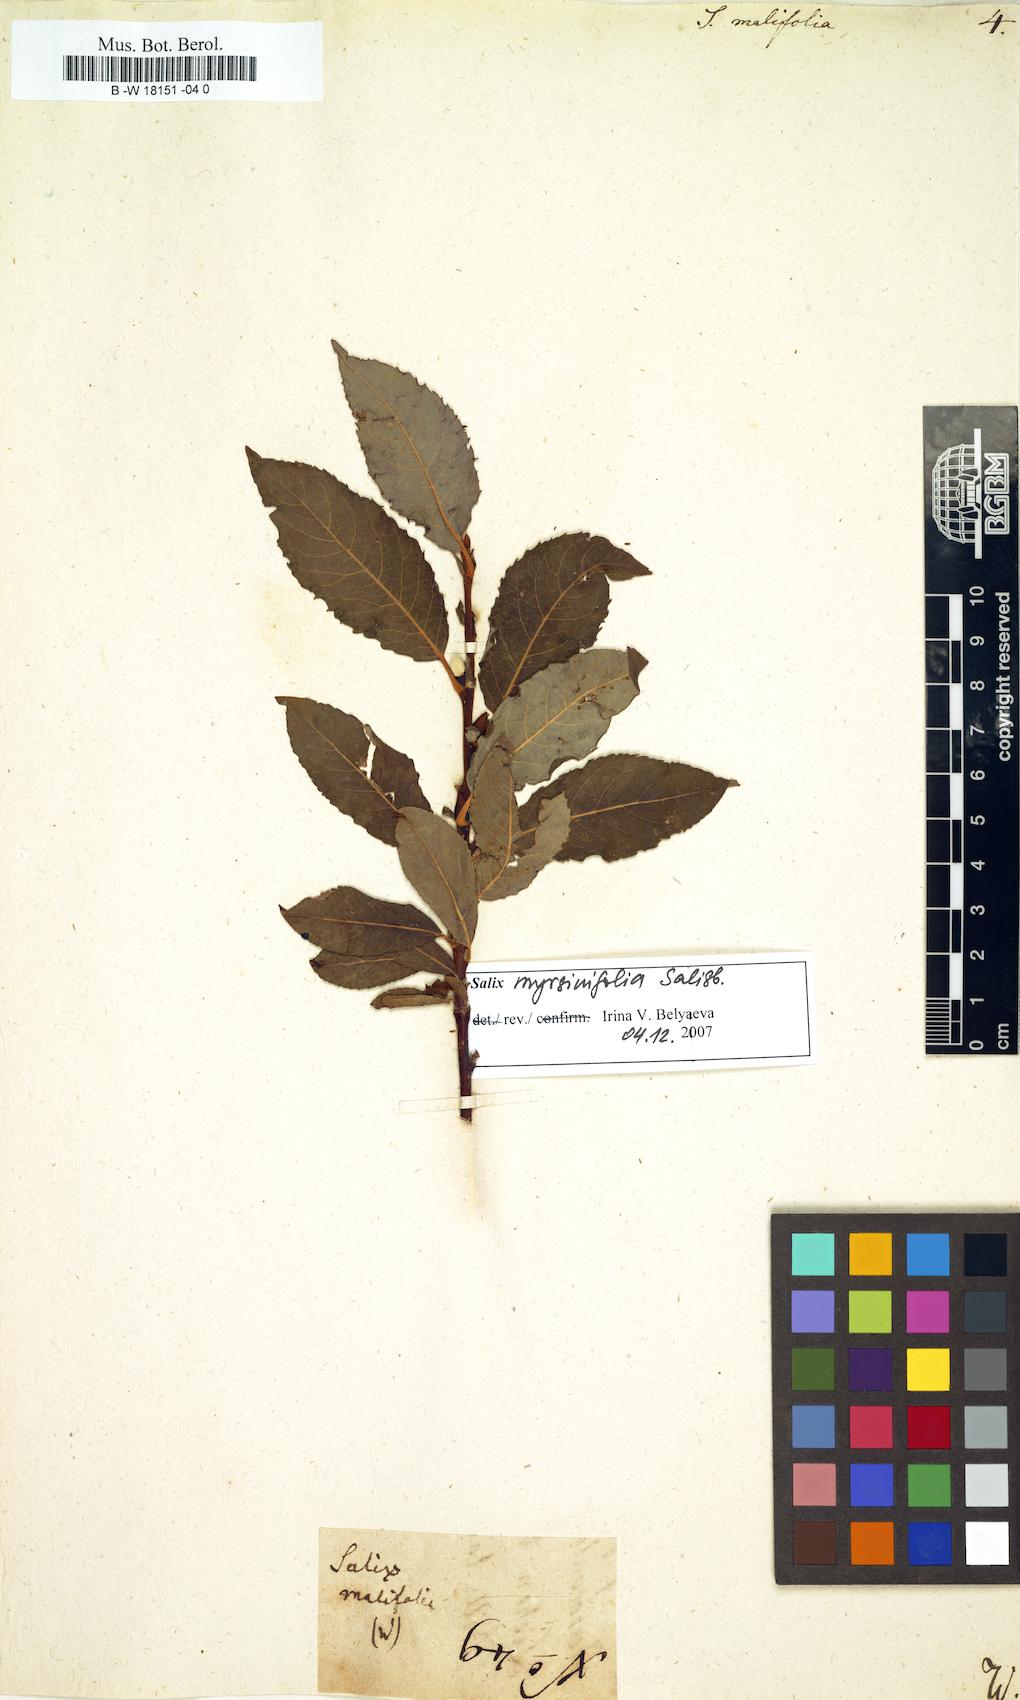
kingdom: Plantae
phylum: Tracheophyta
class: Magnoliopsida
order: Malpighiales
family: Salicaceae
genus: Salix
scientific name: Salix
